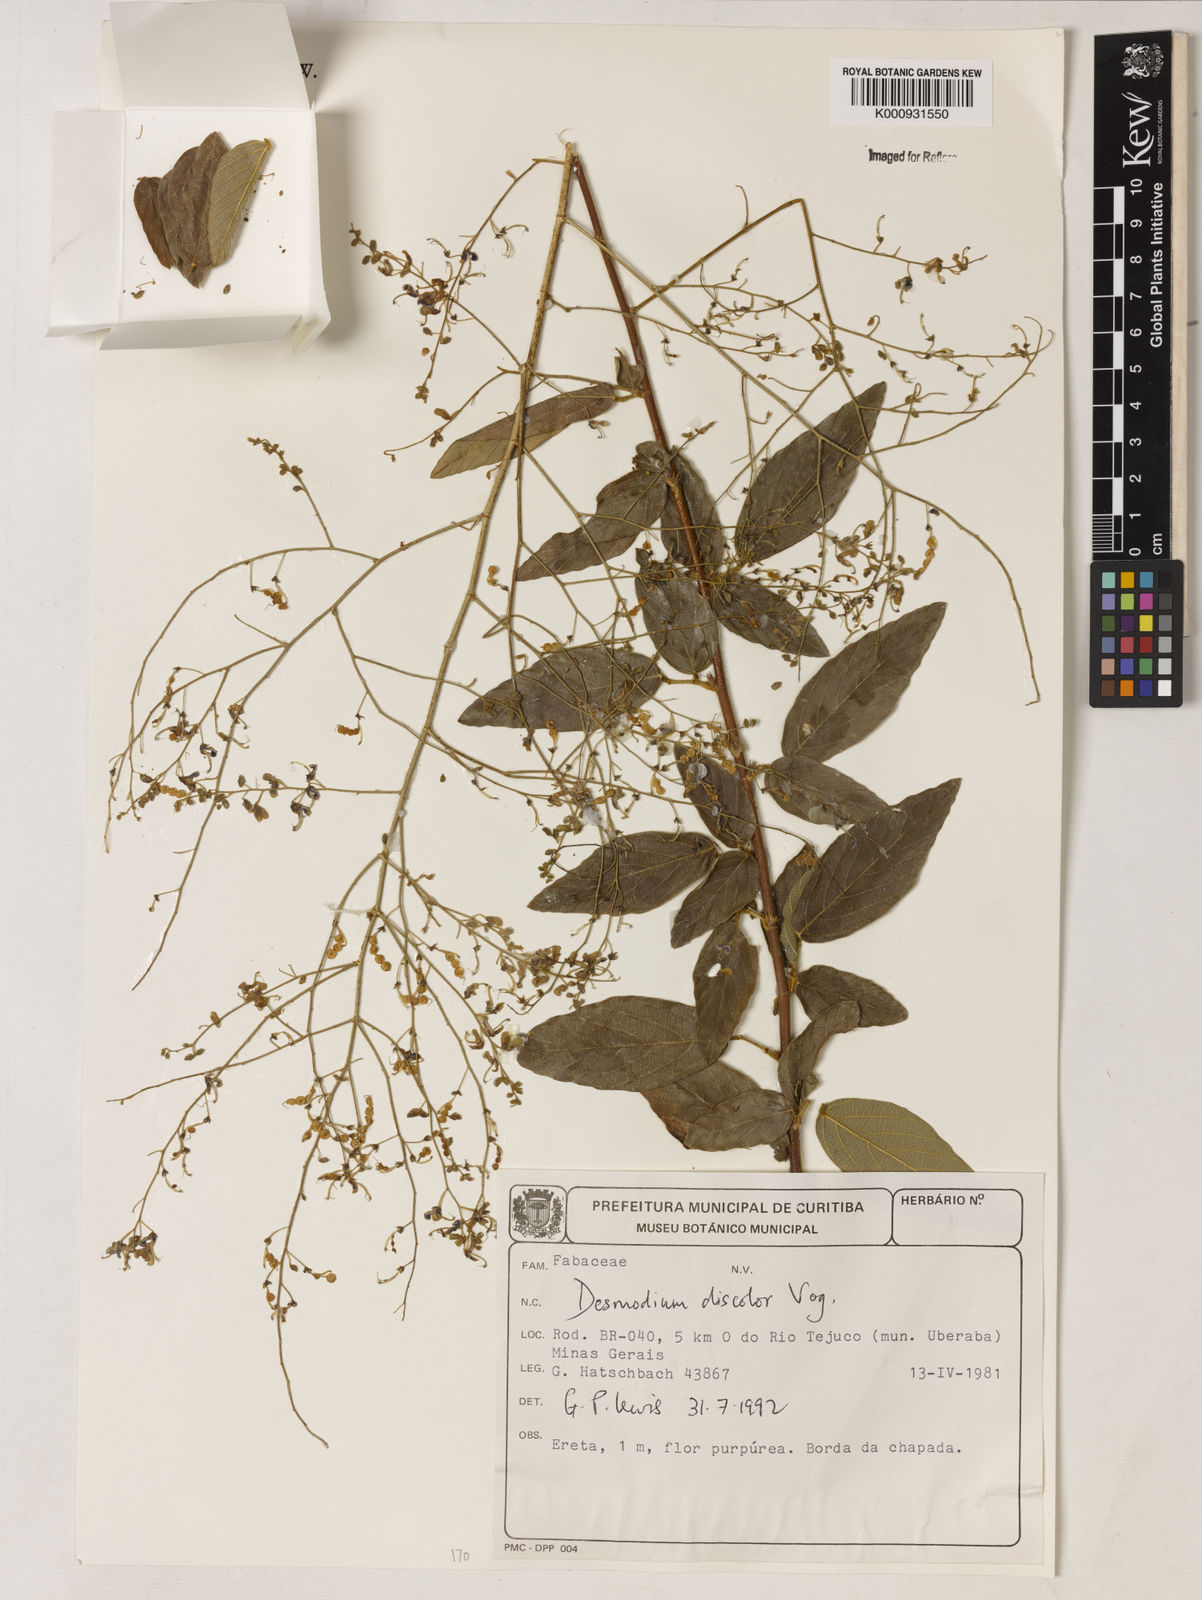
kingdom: Plantae
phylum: Tracheophyta
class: Magnoliopsida
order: Fabales
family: Fabaceae
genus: Desmodium
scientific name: Desmodium subsecundum
